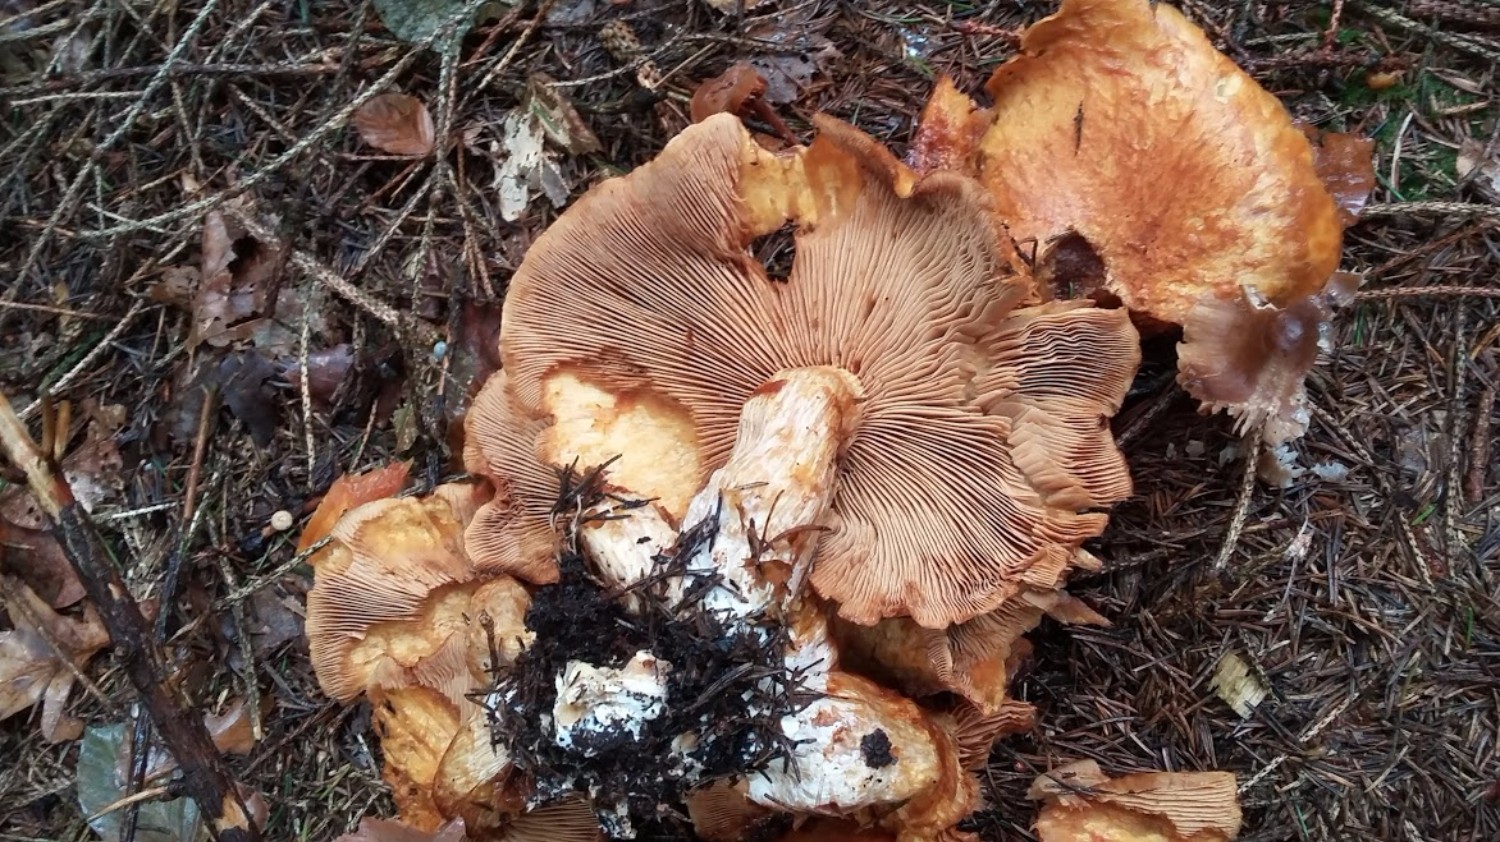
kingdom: Fungi
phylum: Basidiomycota
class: Agaricomycetes
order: Agaricales
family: Hymenogastraceae
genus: Gymnopilus
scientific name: Gymnopilus spectabilis
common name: fibret flammehat
